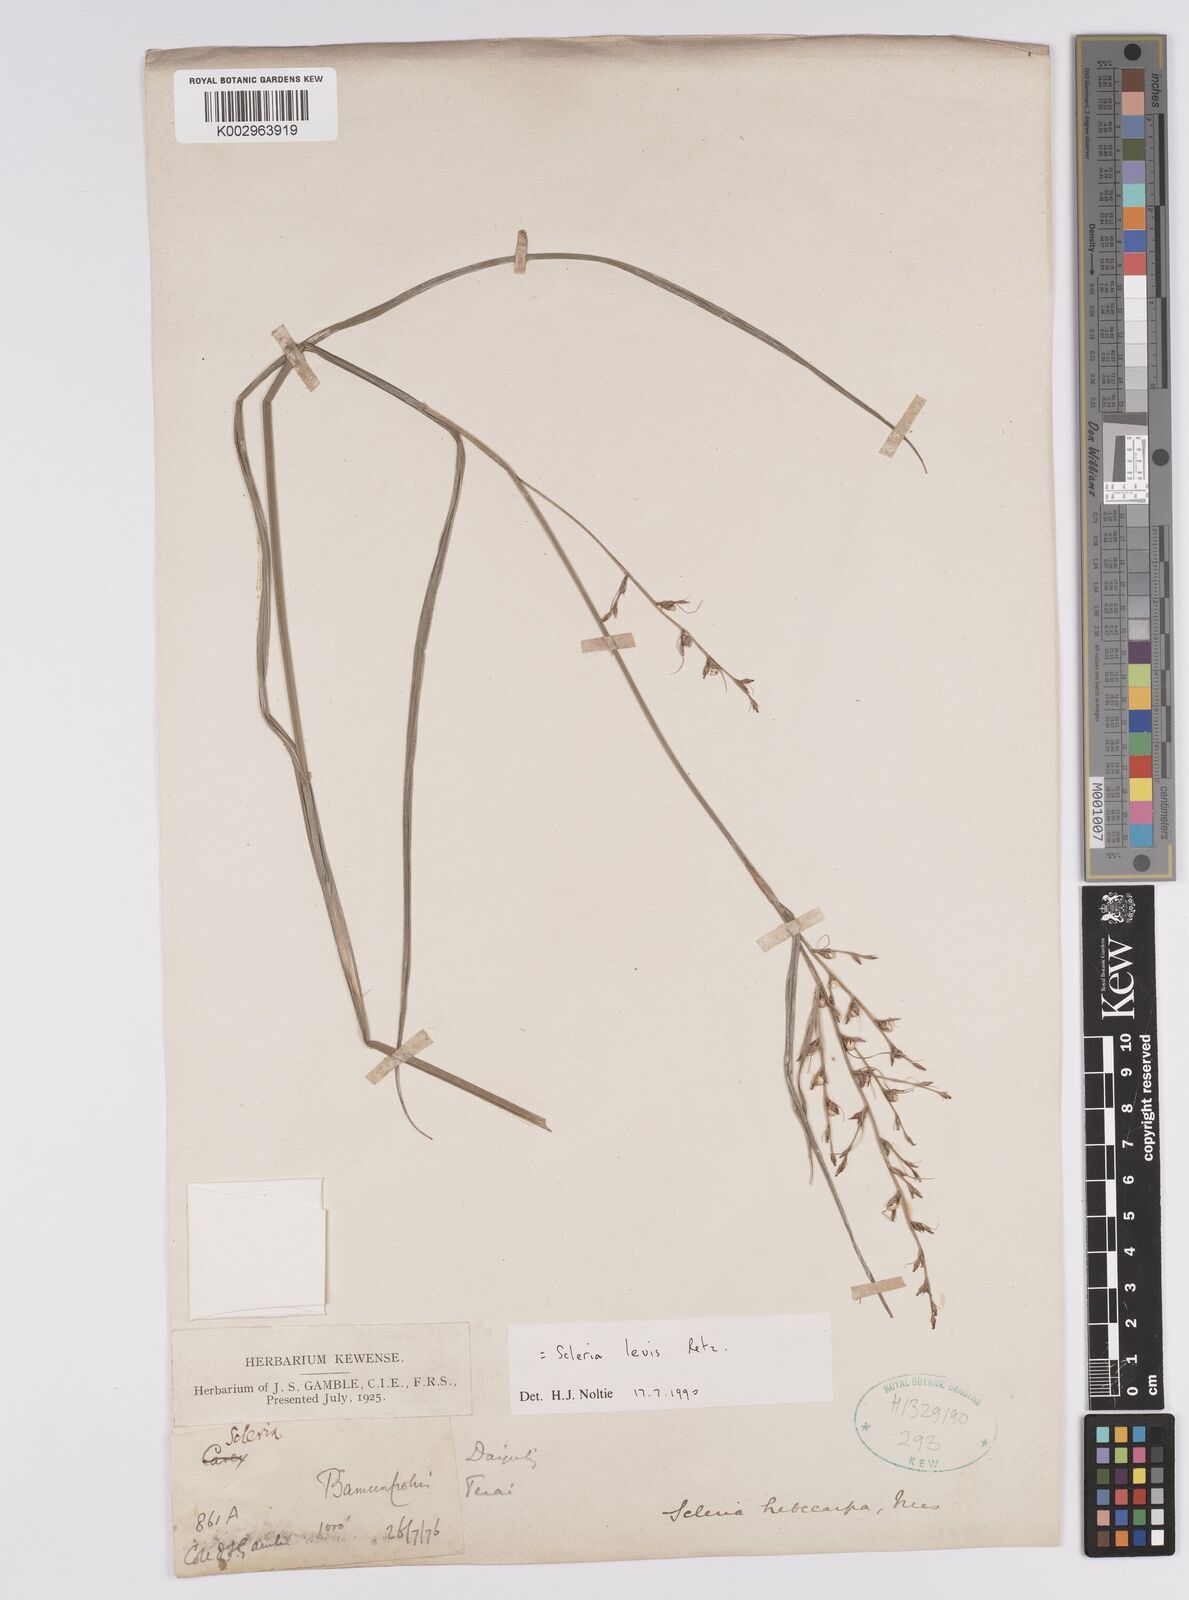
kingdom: Plantae
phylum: Tracheophyta
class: Liliopsida
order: Poales
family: Cyperaceae
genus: Scleria
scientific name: Scleria levis
